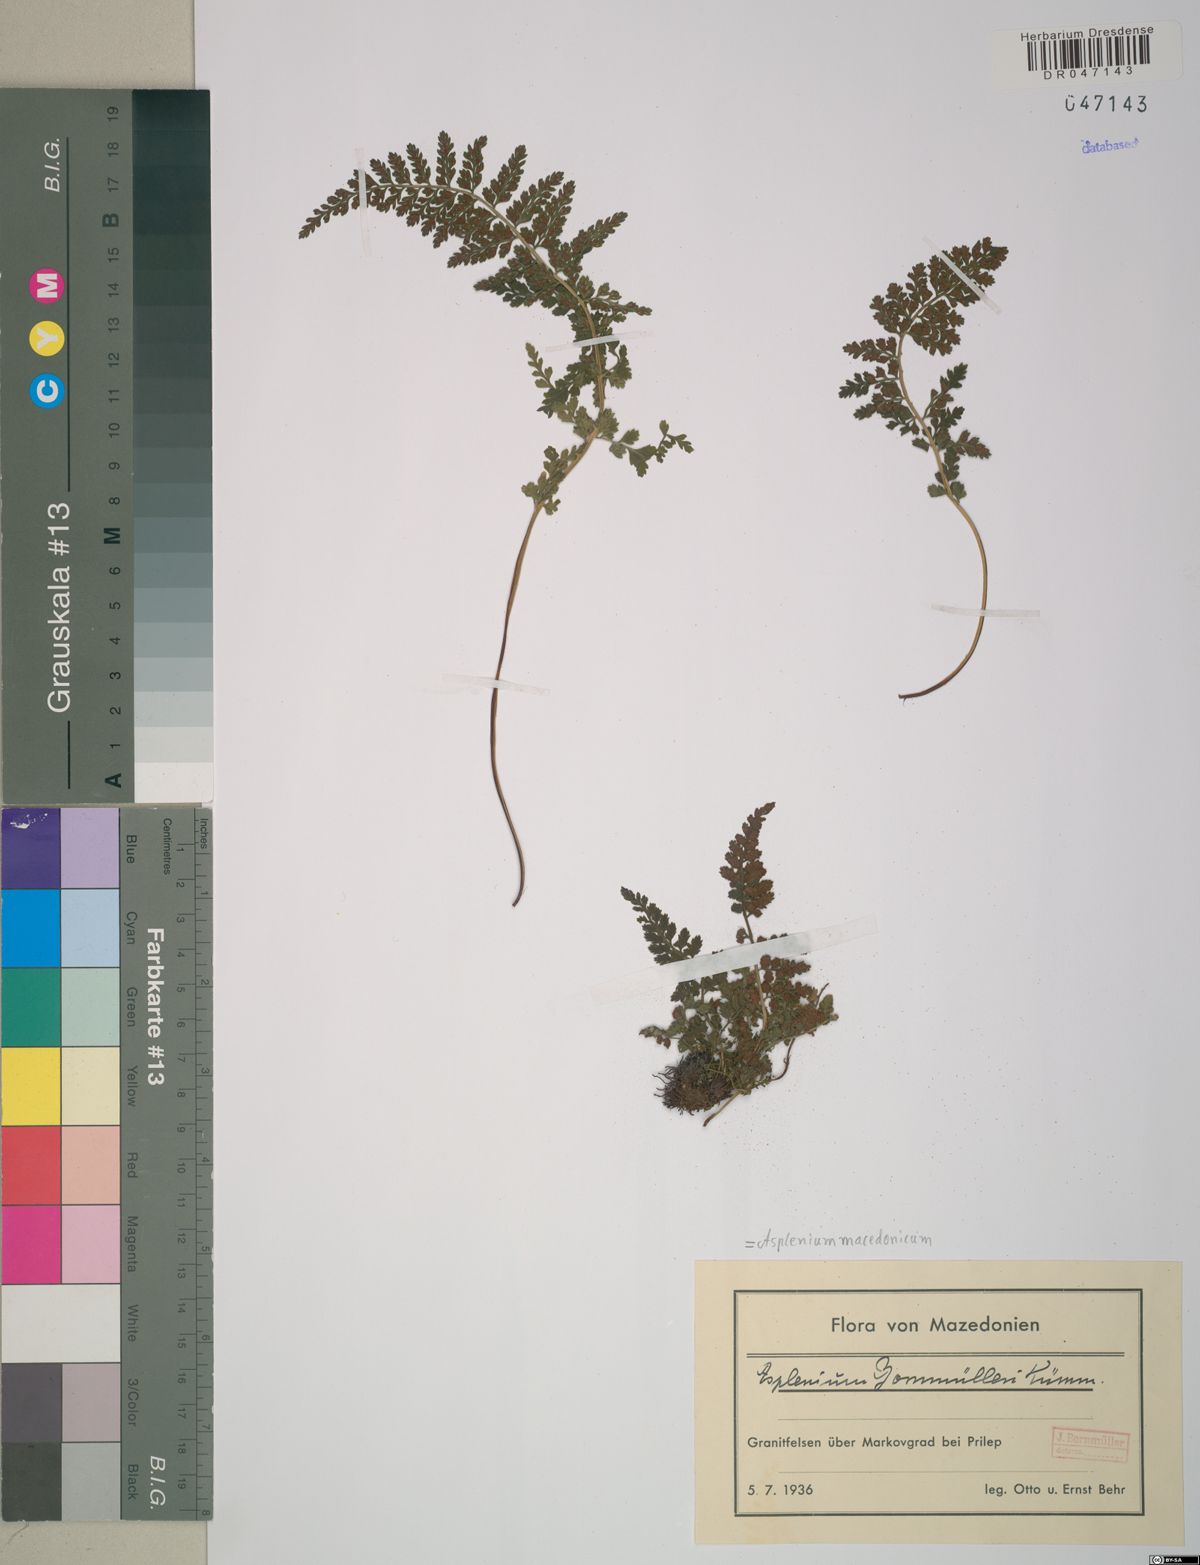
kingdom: Plantae
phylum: Tracheophyta
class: Polypodiopsida
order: Polypodiales
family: Aspleniaceae
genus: Asplenium
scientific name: Asplenium macedonicum
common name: Macedonian spleenwort
